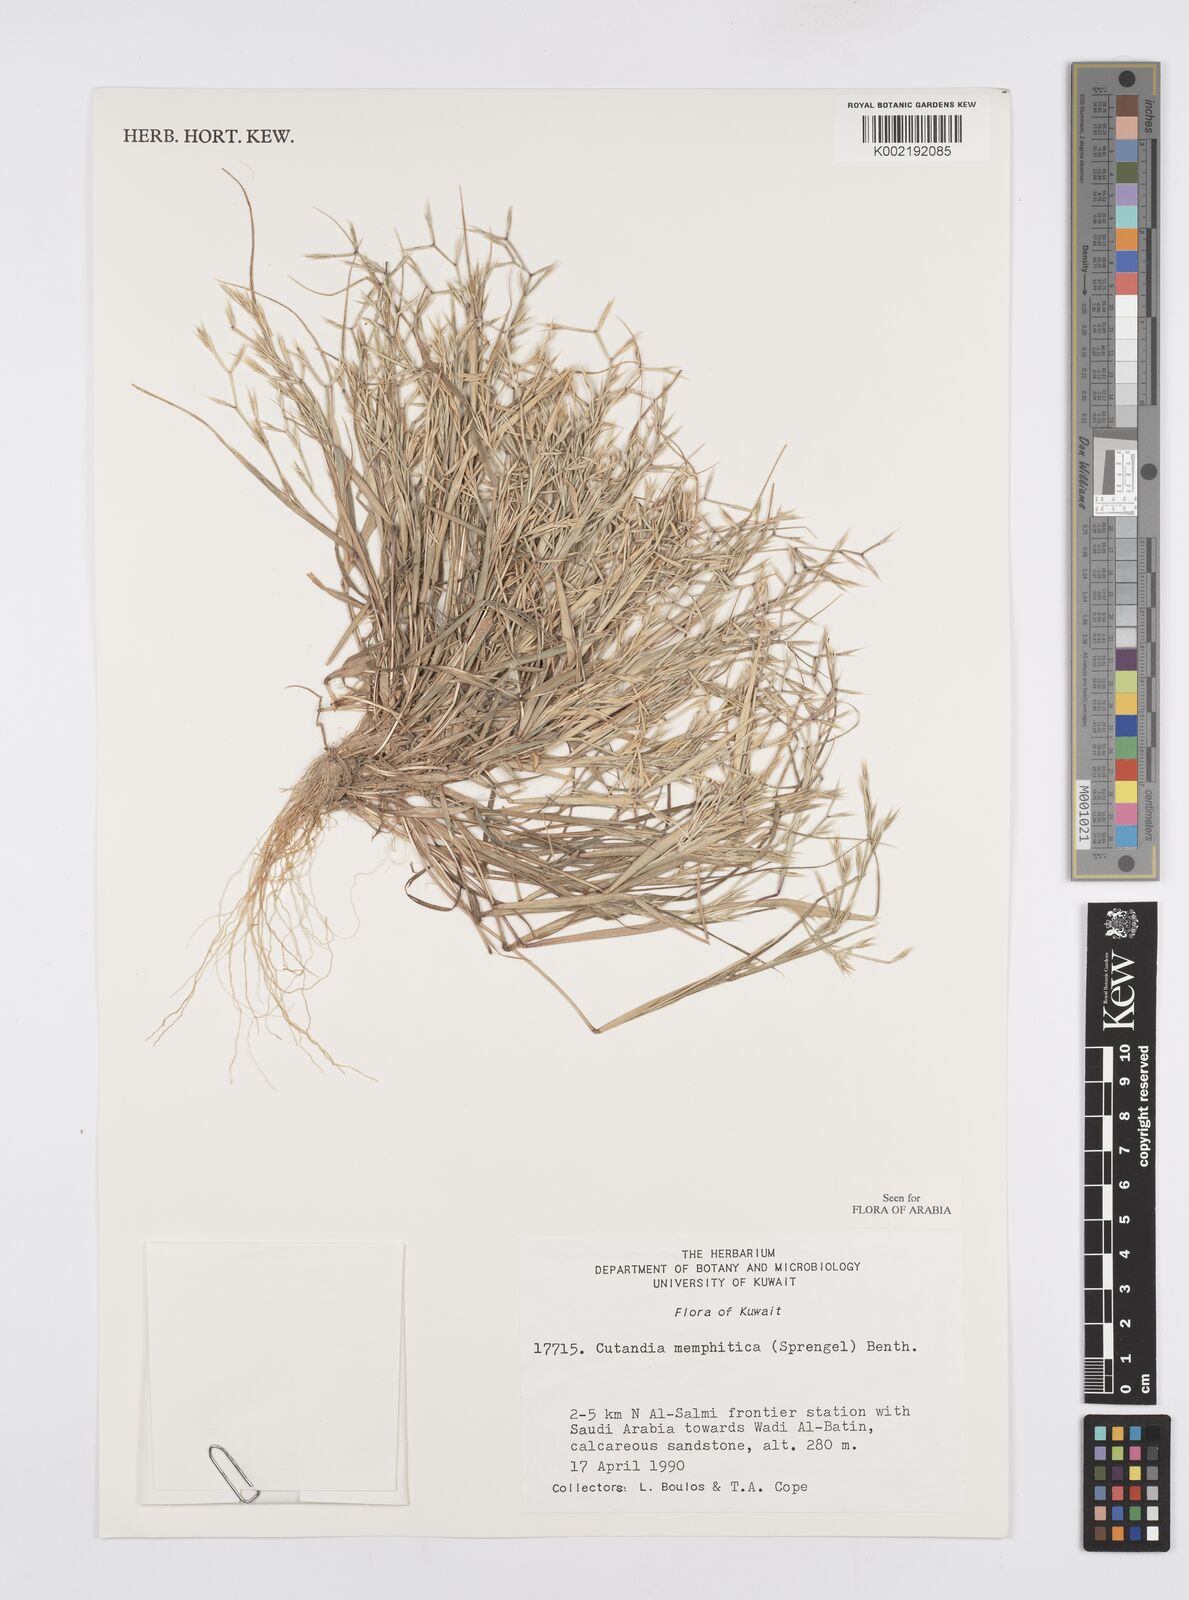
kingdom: Plantae
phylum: Tracheophyta
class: Liliopsida
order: Poales
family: Poaceae
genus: Cutandia
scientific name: Cutandia memphitica
